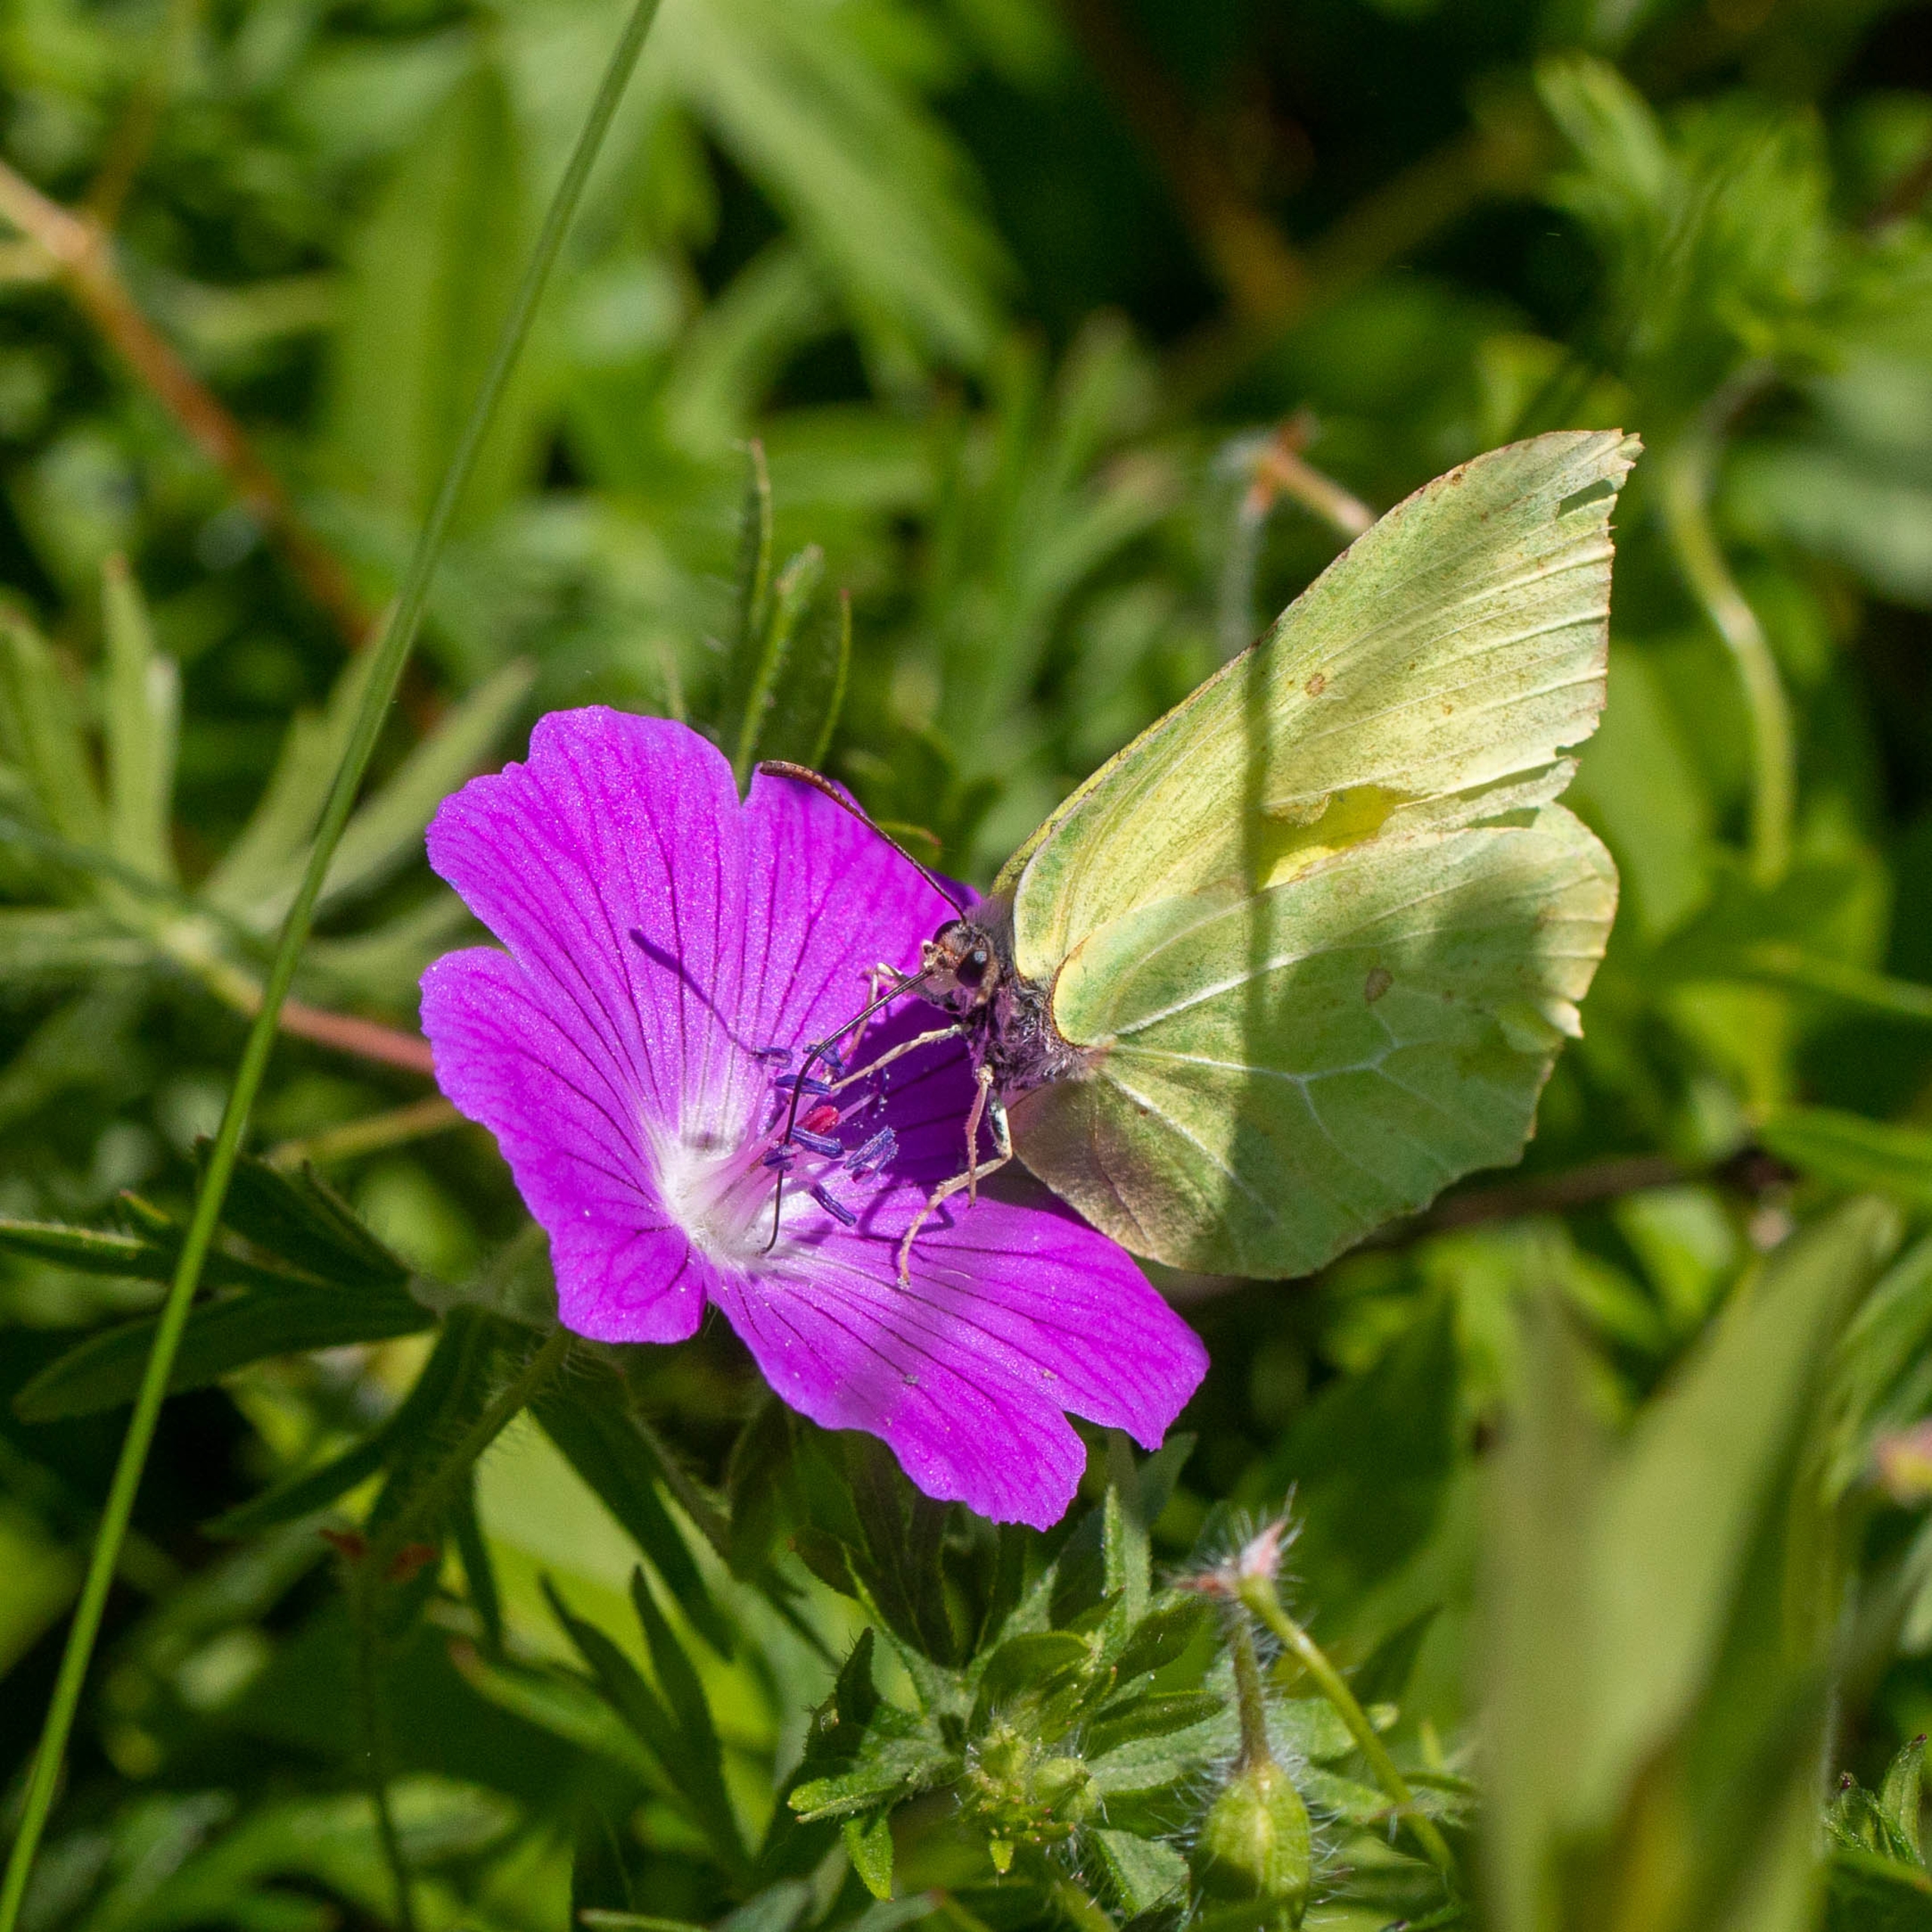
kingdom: Animalia
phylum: Arthropoda
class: Insecta
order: Lepidoptera
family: Pieridae
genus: Gonepteryx
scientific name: Gonepteryx rhamni
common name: Citronsommerfugl
